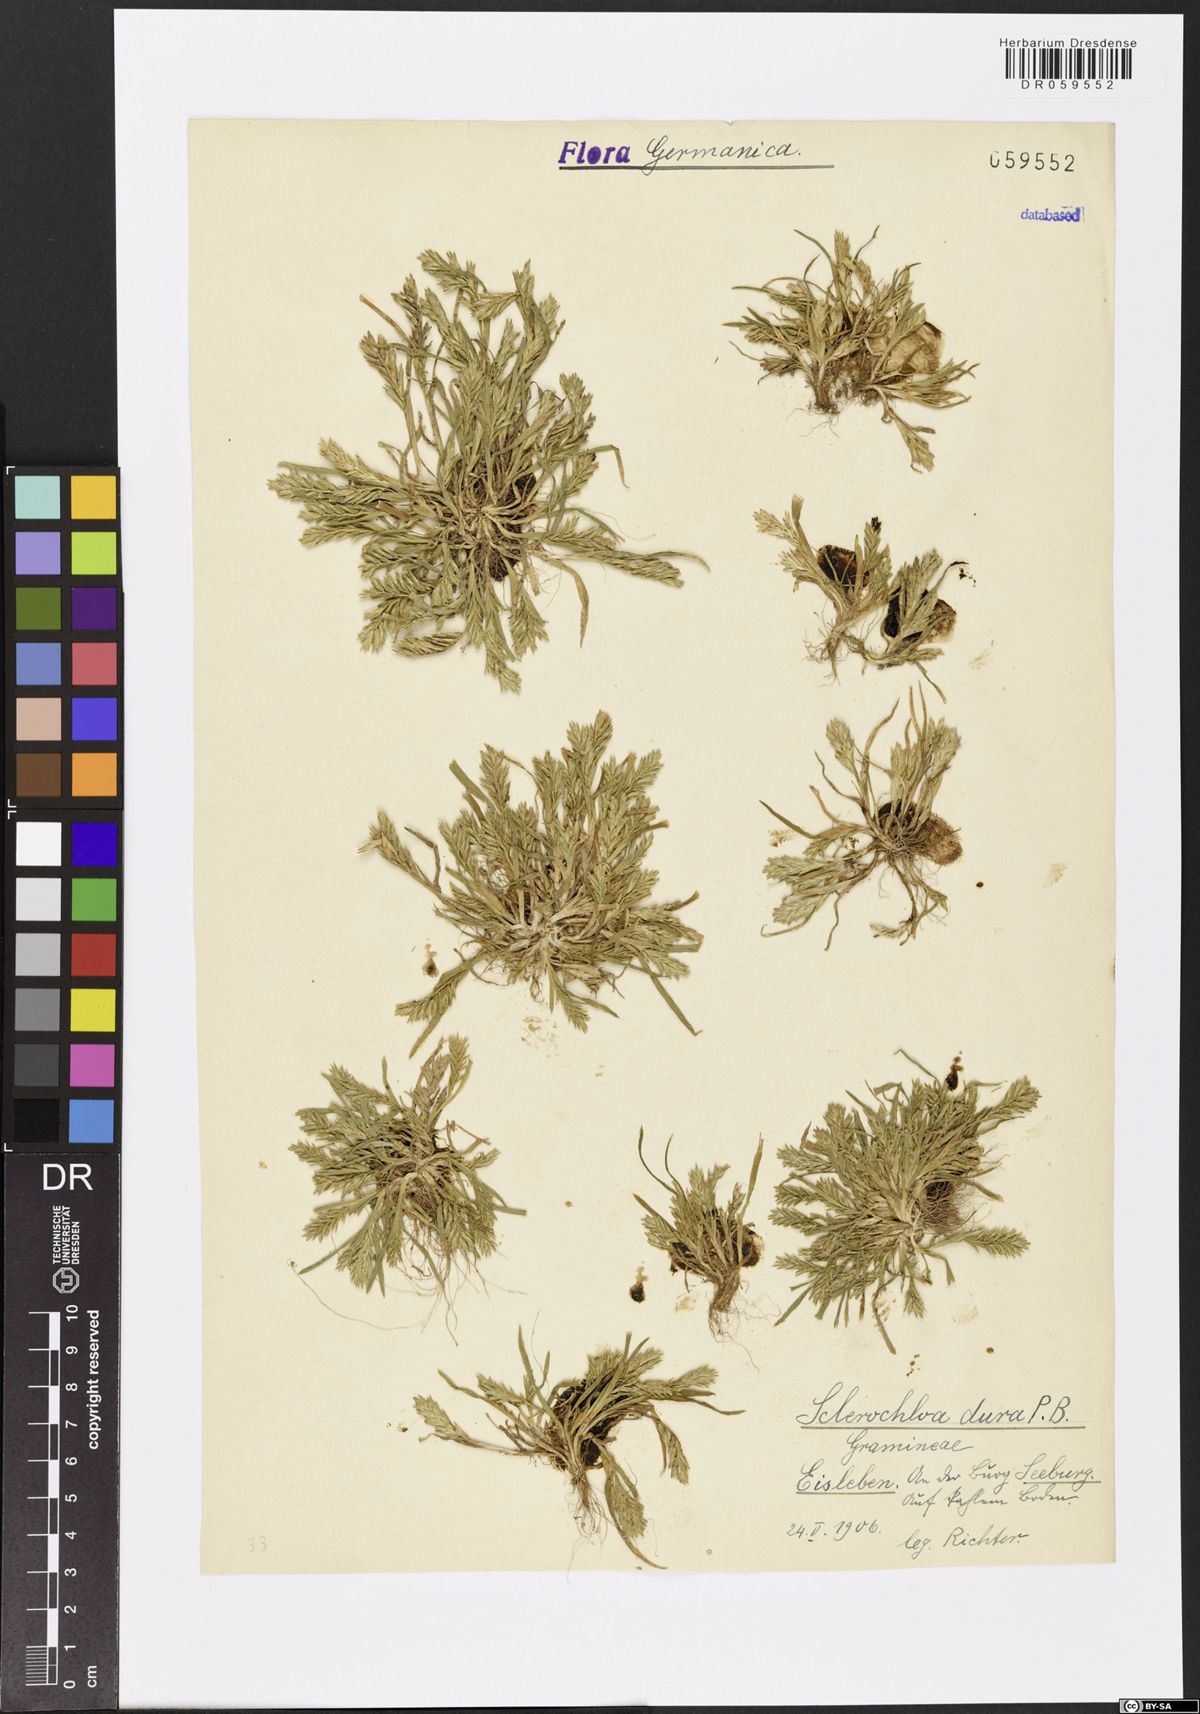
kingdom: Plantae
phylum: Tracheophyta
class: Liliopsida
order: Poales
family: Poaceae
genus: Sclerochloa
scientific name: Sclerochloa dura
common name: Common hardgrass
